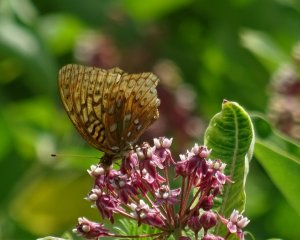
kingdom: Animalia
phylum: Arthropoda
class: Insecta
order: Lepidoptera
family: Nymphalidae
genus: Speyeria
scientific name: Speyeria cybele
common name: Great Spangled Fritillary
